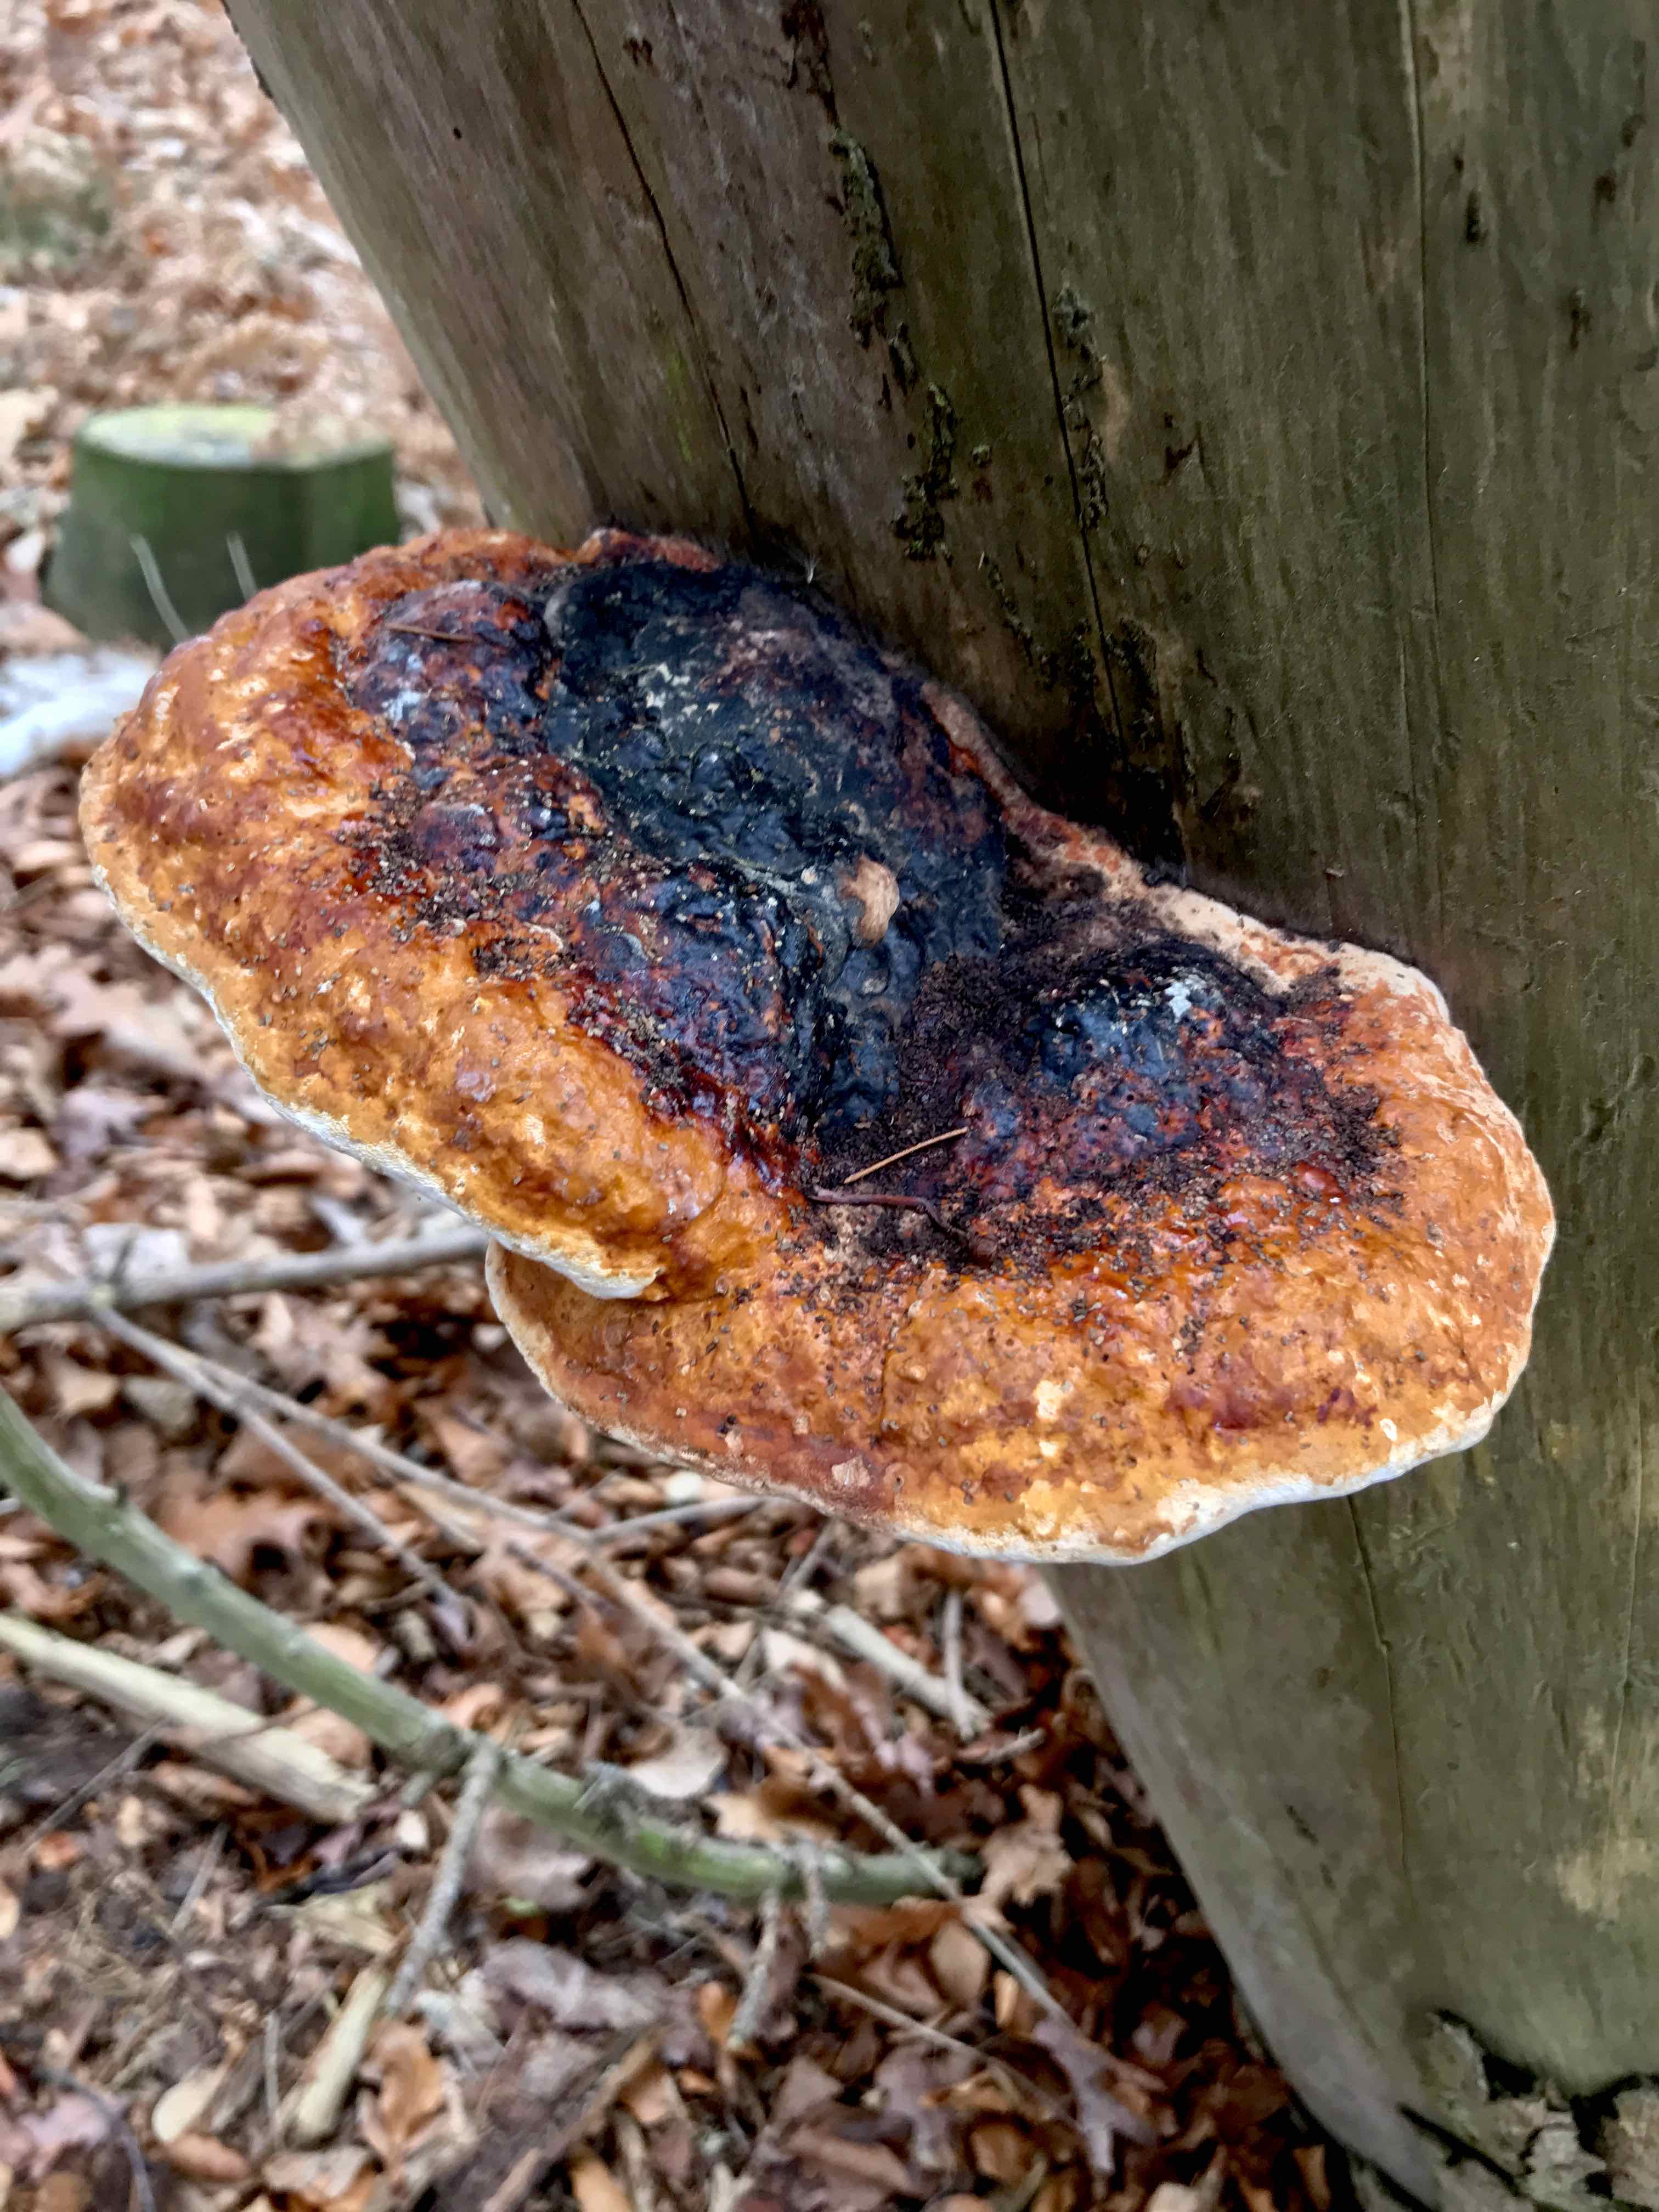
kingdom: Fungi
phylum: Basidiomycota
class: Agaricomycetes
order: Polyporales
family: Fomitopsidaceae
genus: Fomitopsis
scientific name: Fomitopsis pinicola
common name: randbæltet hovporesvamp
